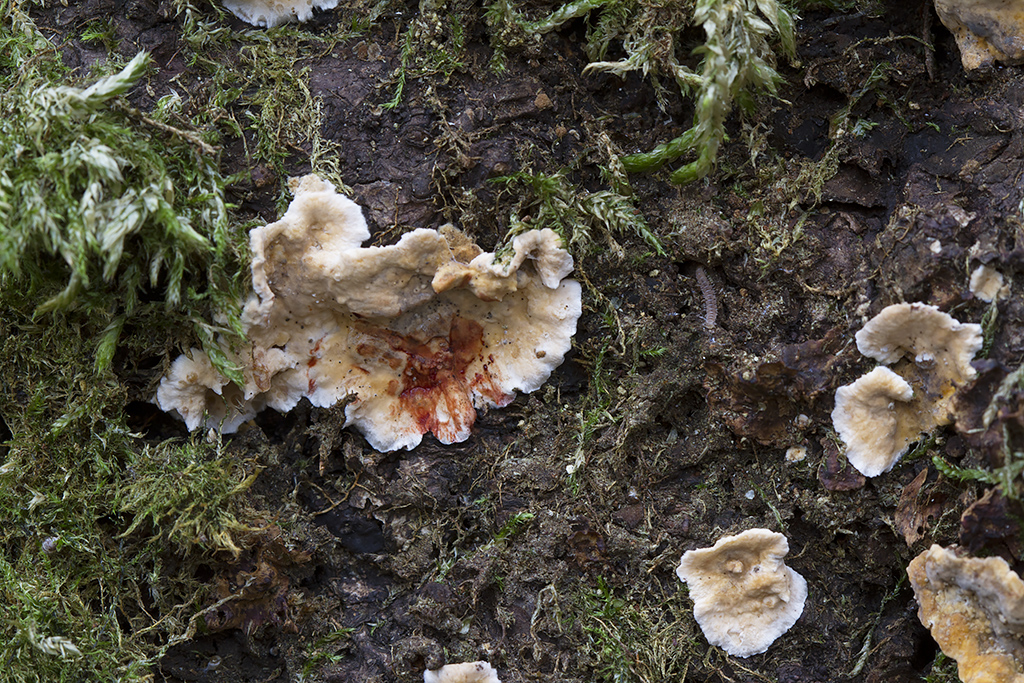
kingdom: Fungi
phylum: Basidiomycota
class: Agaricomycetes
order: Russulales
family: Stereaceae
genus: Stereum
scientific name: Stereum rugosum
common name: rynket lædersvamp
